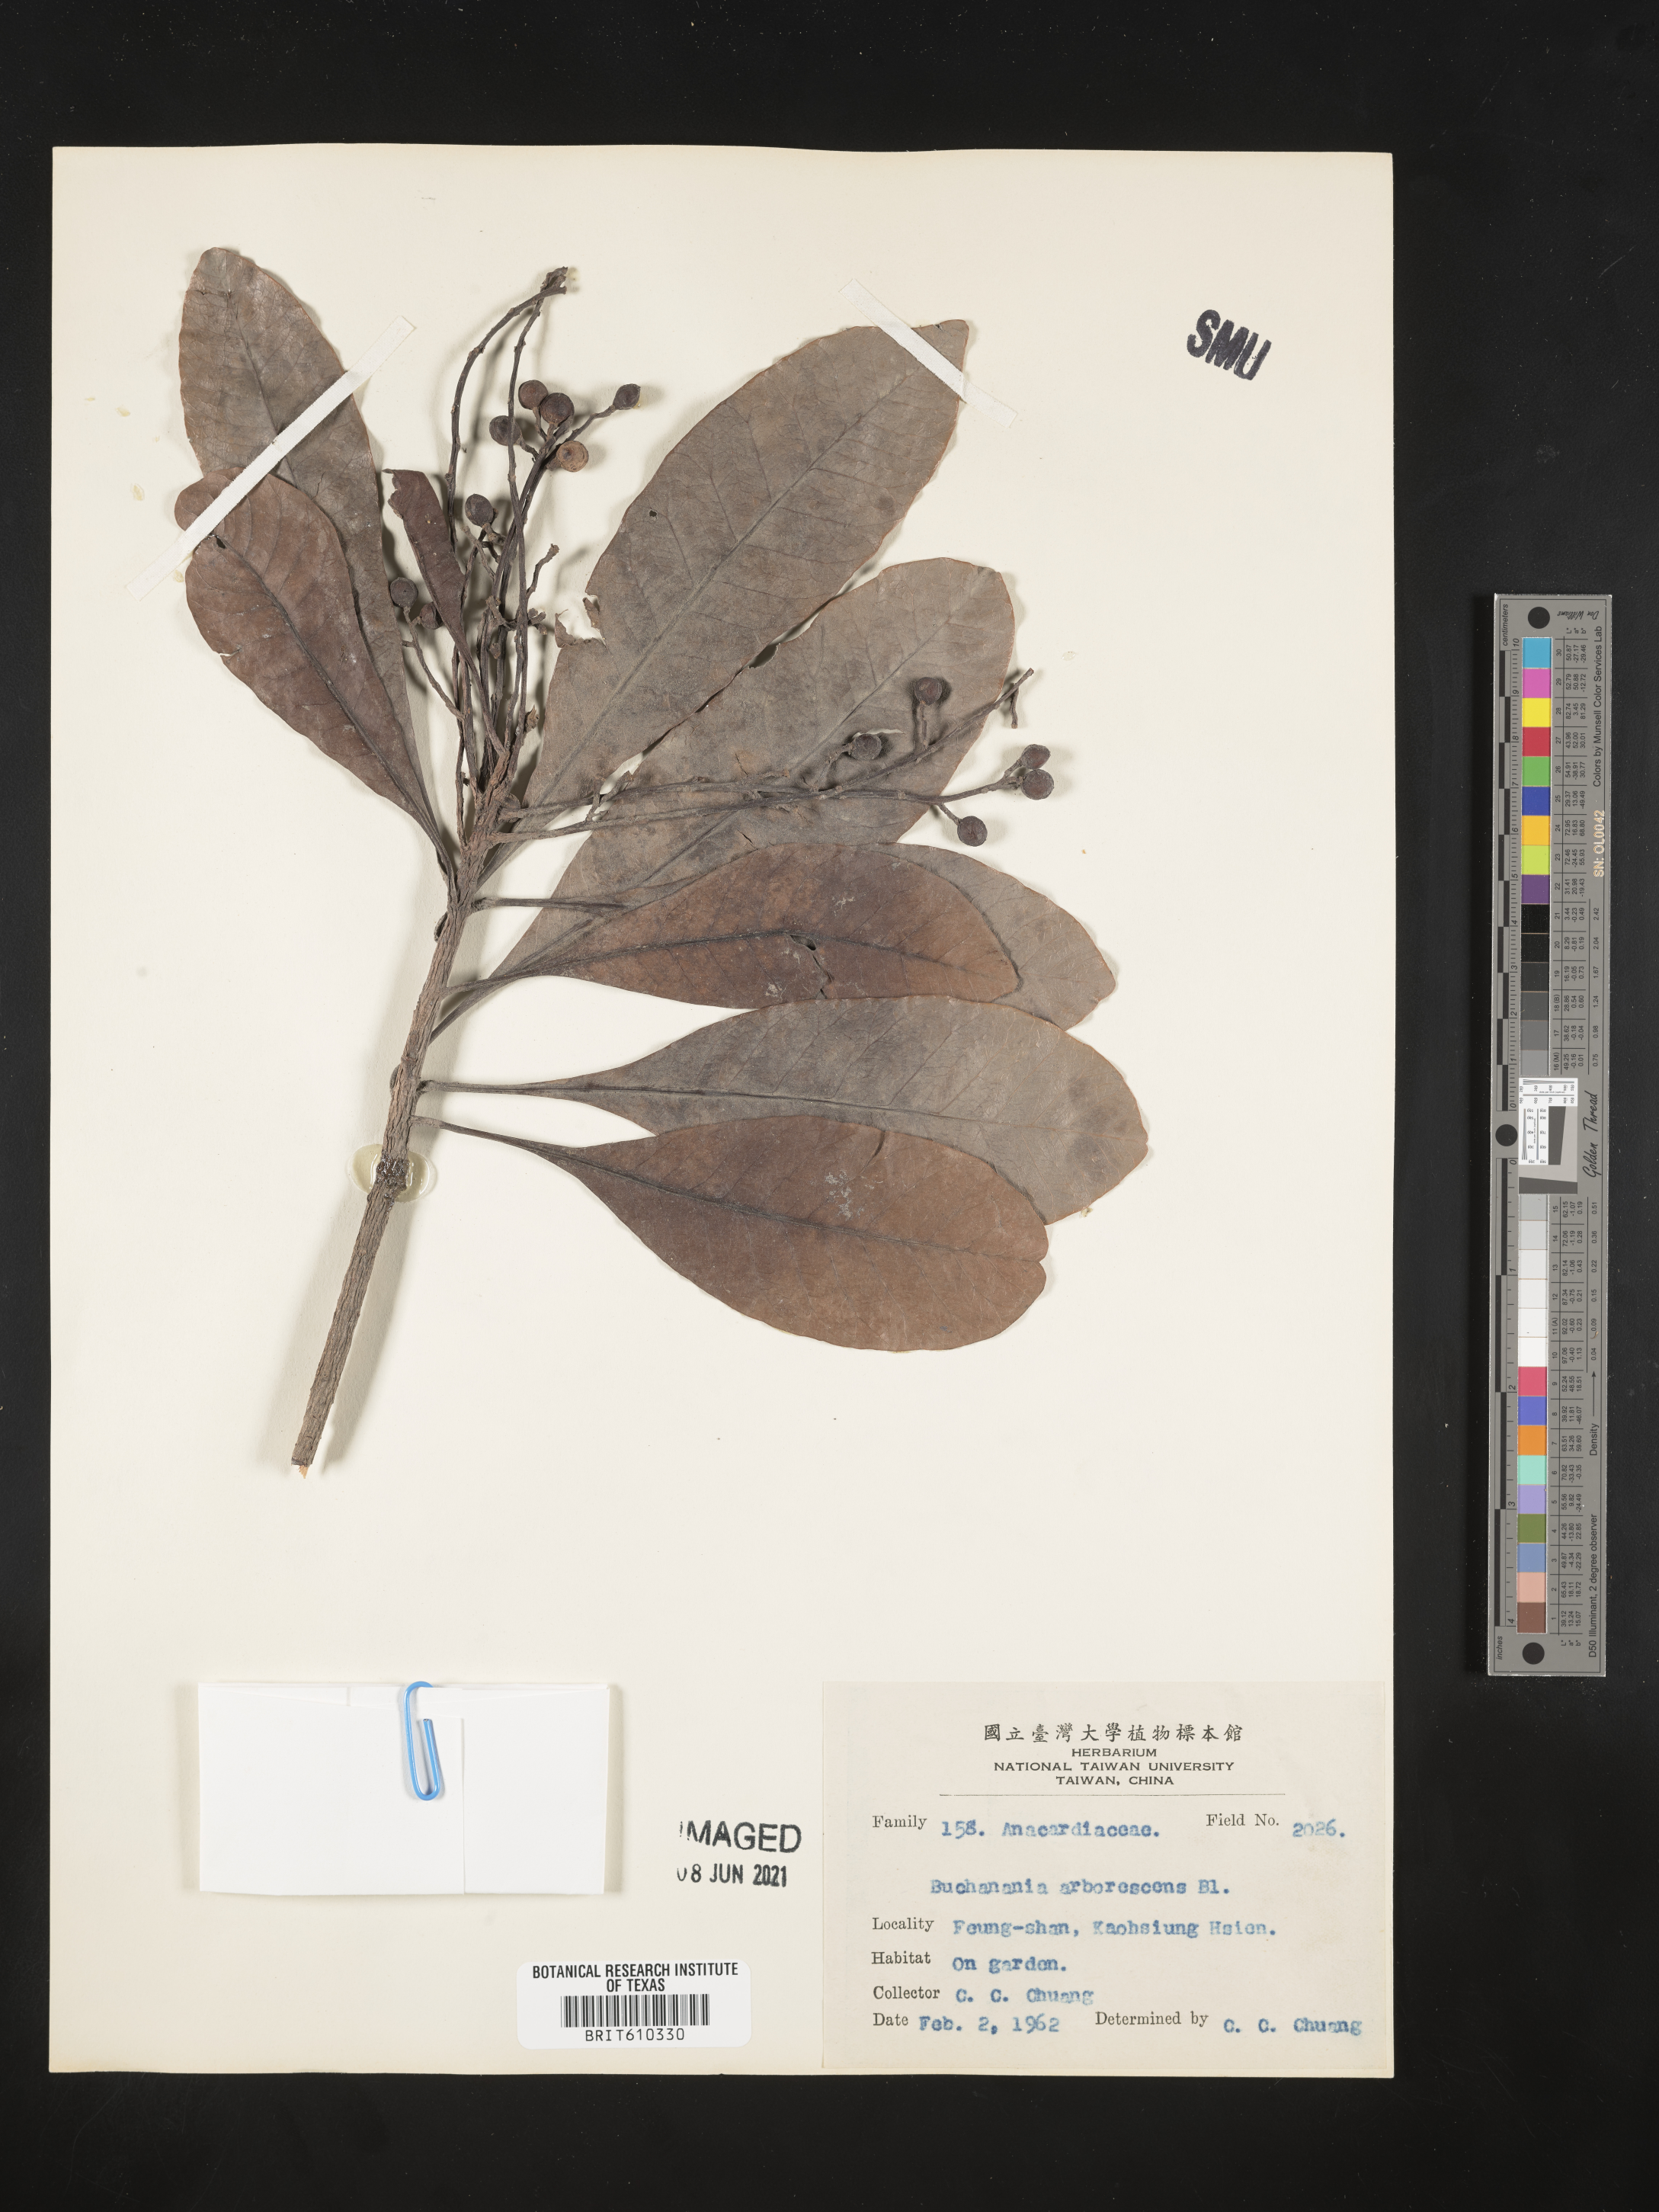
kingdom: Plantae
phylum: Tracheophyta
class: Magnoliopsida
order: Sapindales
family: Anacardiaceae
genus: Buchanania
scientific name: Buchanania arborescens
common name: Sparrow’s mango
